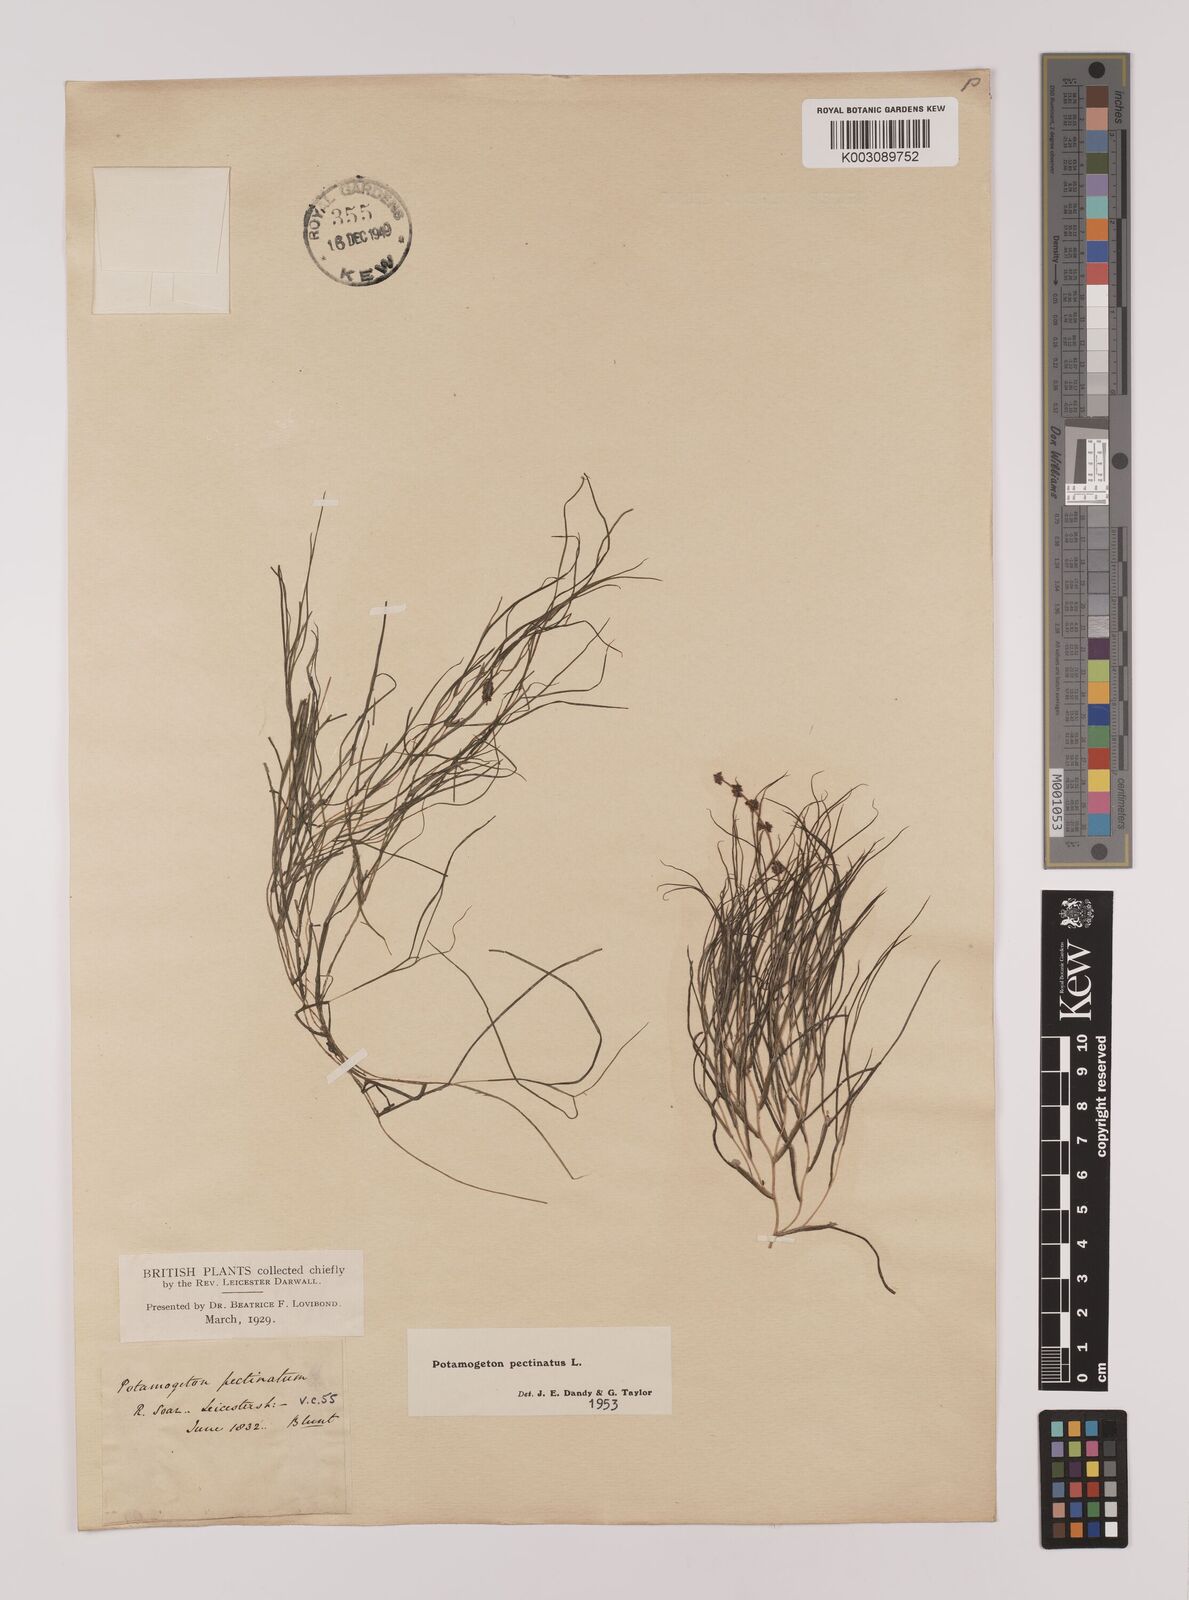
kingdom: Plantae
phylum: Tracheophyta
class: Liliopsida
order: Alismatales
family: Potamogetonaceae
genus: Stuckenia
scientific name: Stuckenia pectinata
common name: Sago pondweed
